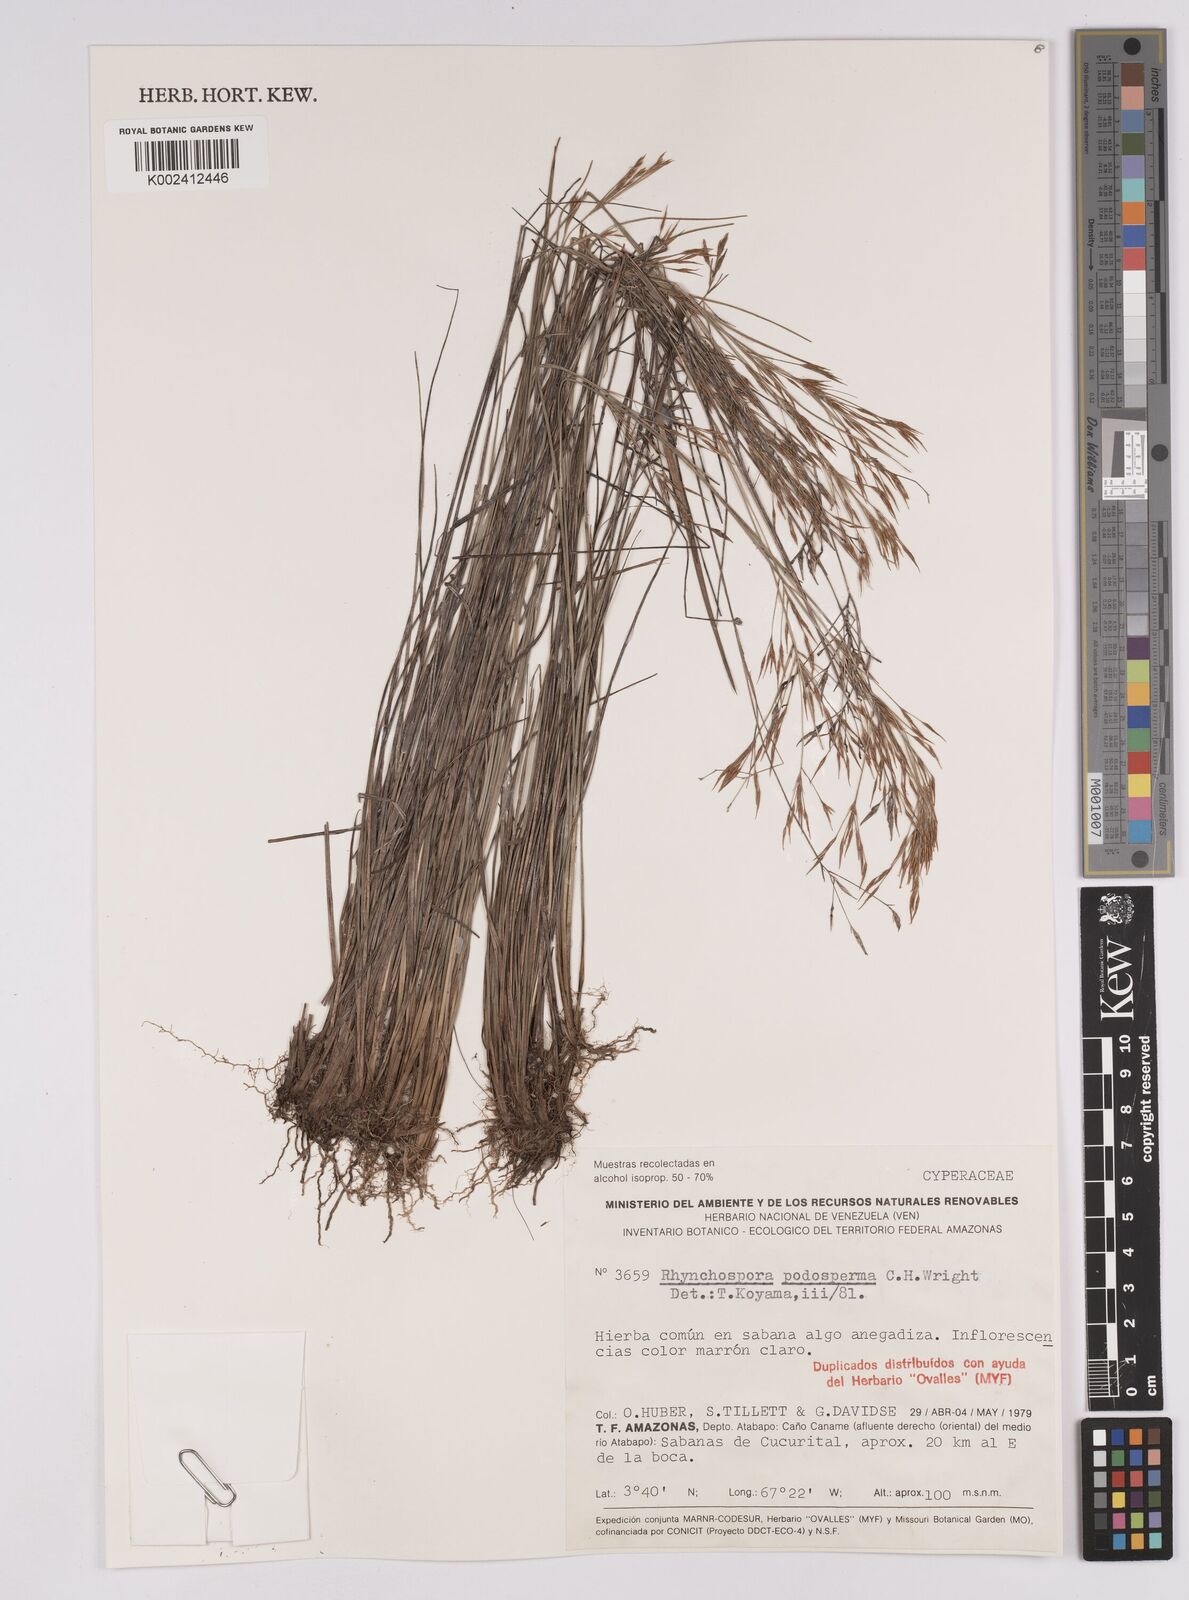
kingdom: Plantae
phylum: Tracheophyta
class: Liliopsida
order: Poales
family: Cyperaceae
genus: Rhynchospora
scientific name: Rhynchospora filiformis
